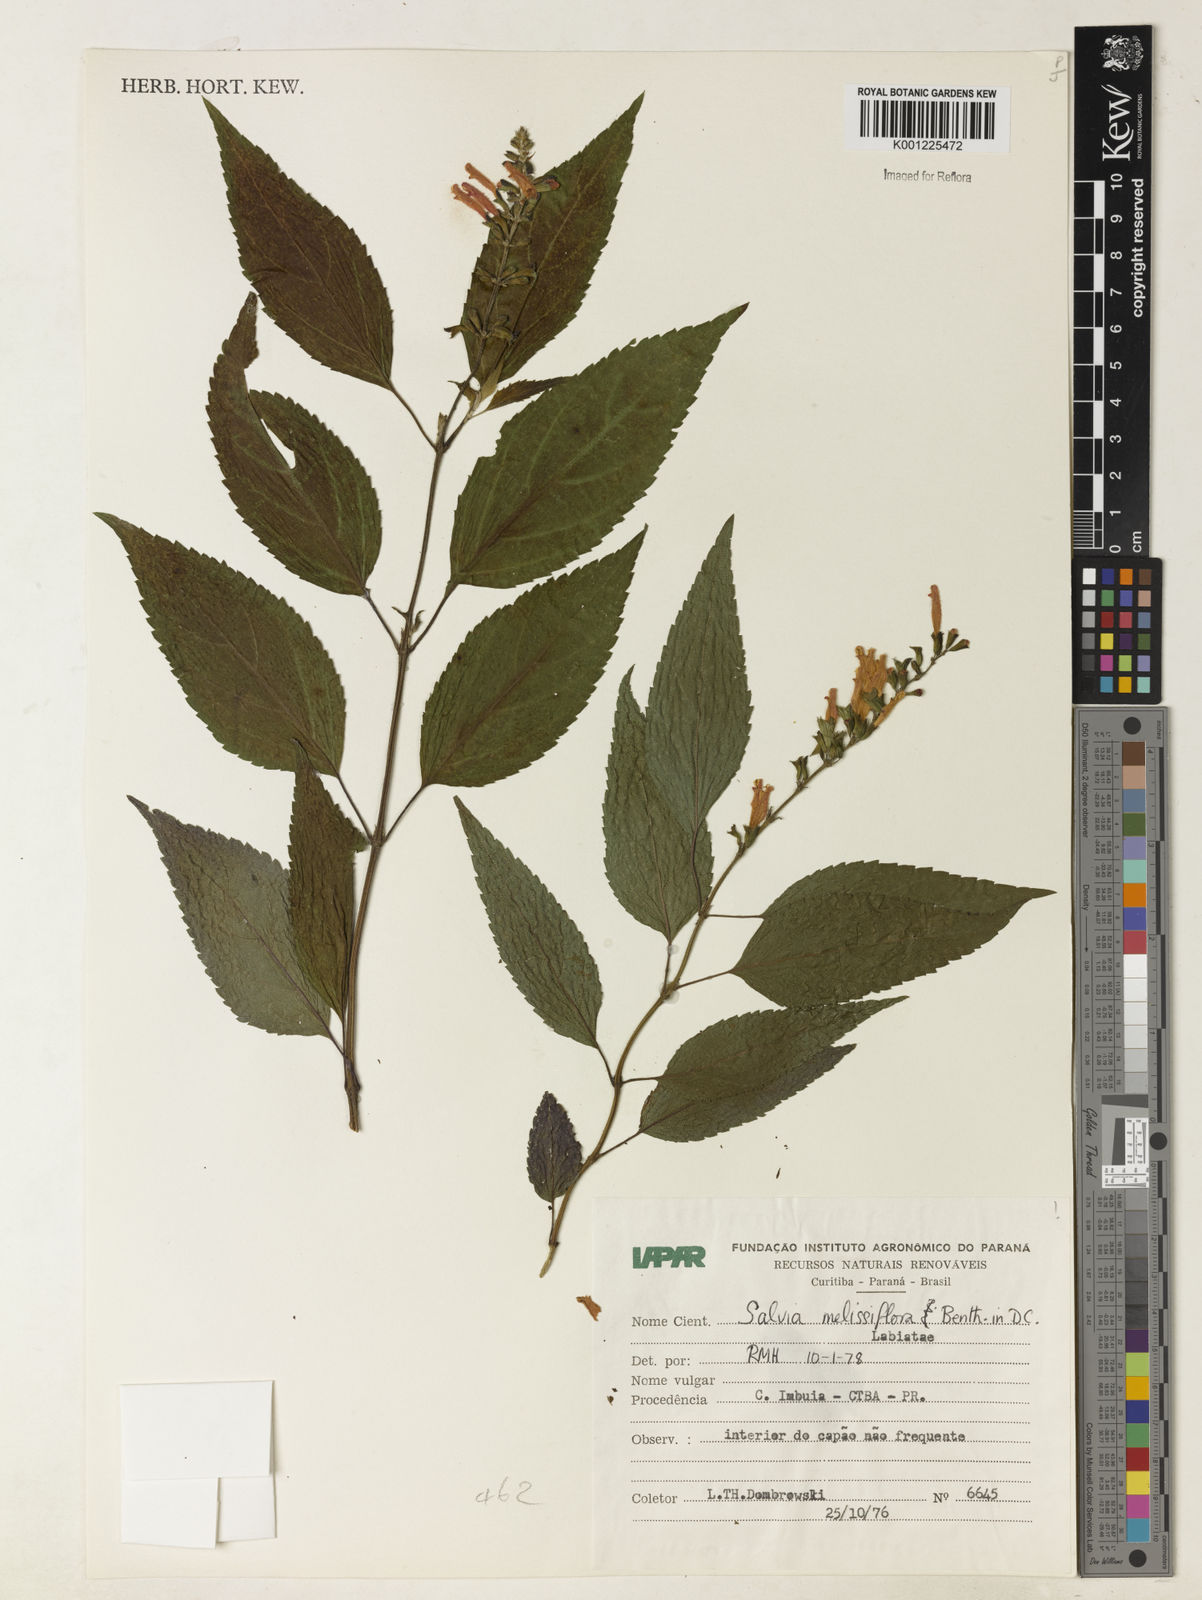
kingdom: Plantae
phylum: Tracheophyta
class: Magnoliopsida
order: Lamiales
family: Lamiaceae
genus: Salvia
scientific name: Salvia melissiflora
